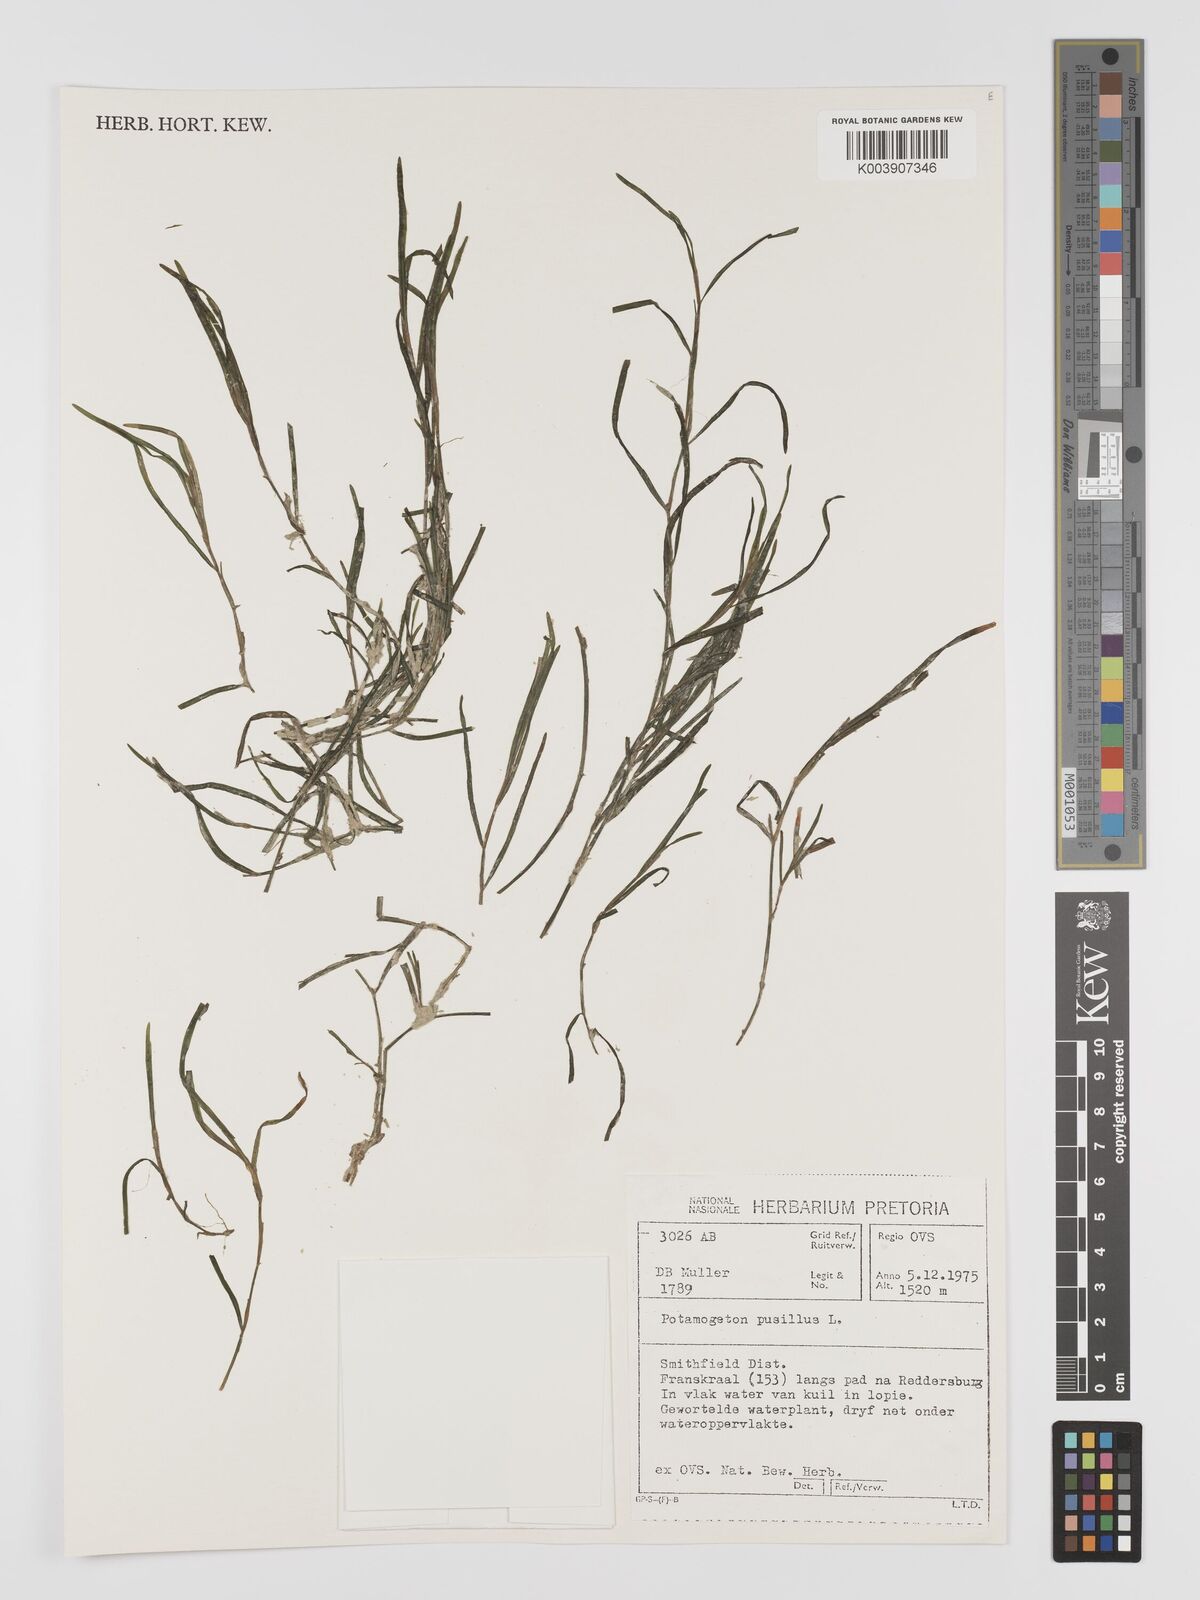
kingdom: Plantae
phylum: Tracheophyta
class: Liliopsida
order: Alismatales
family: Potamogetonaceae
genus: Potamogeton
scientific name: Potamogeton pusillus
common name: Lesser pondweed
